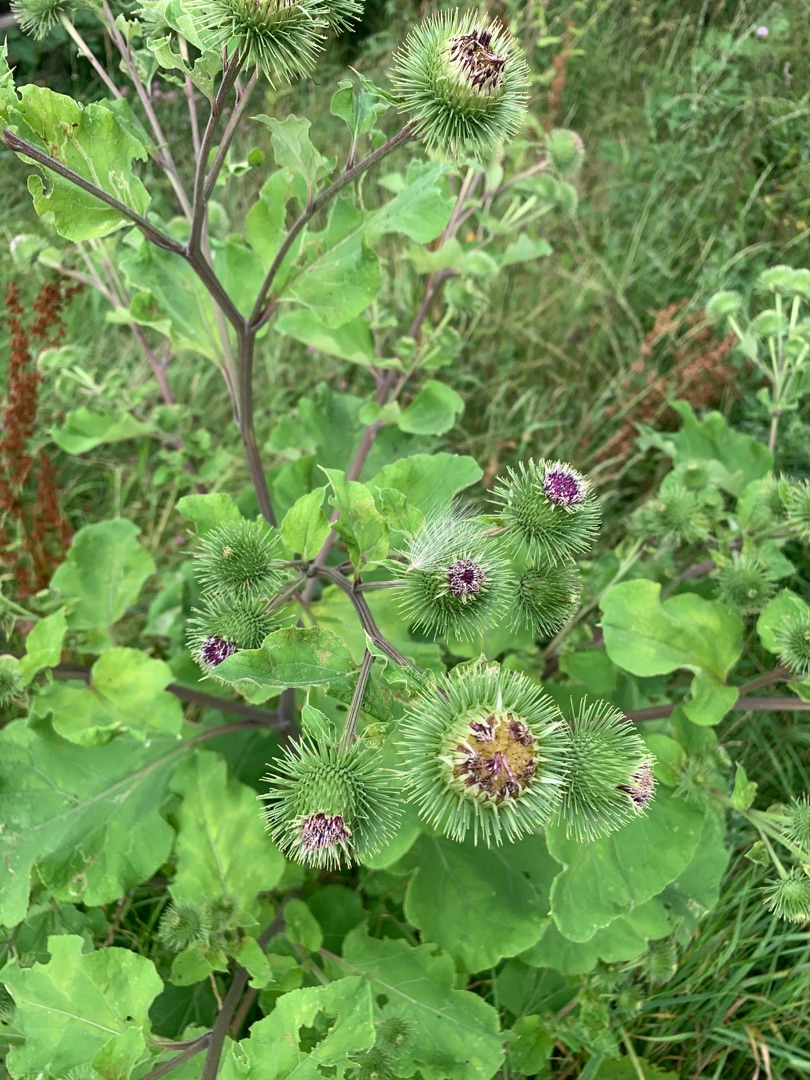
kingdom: Plantae
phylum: Tracheophyta
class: Magnoliopsida
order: Asterales
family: Asteraceae
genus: Arctium
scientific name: Arctium lappa
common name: Glat burre
